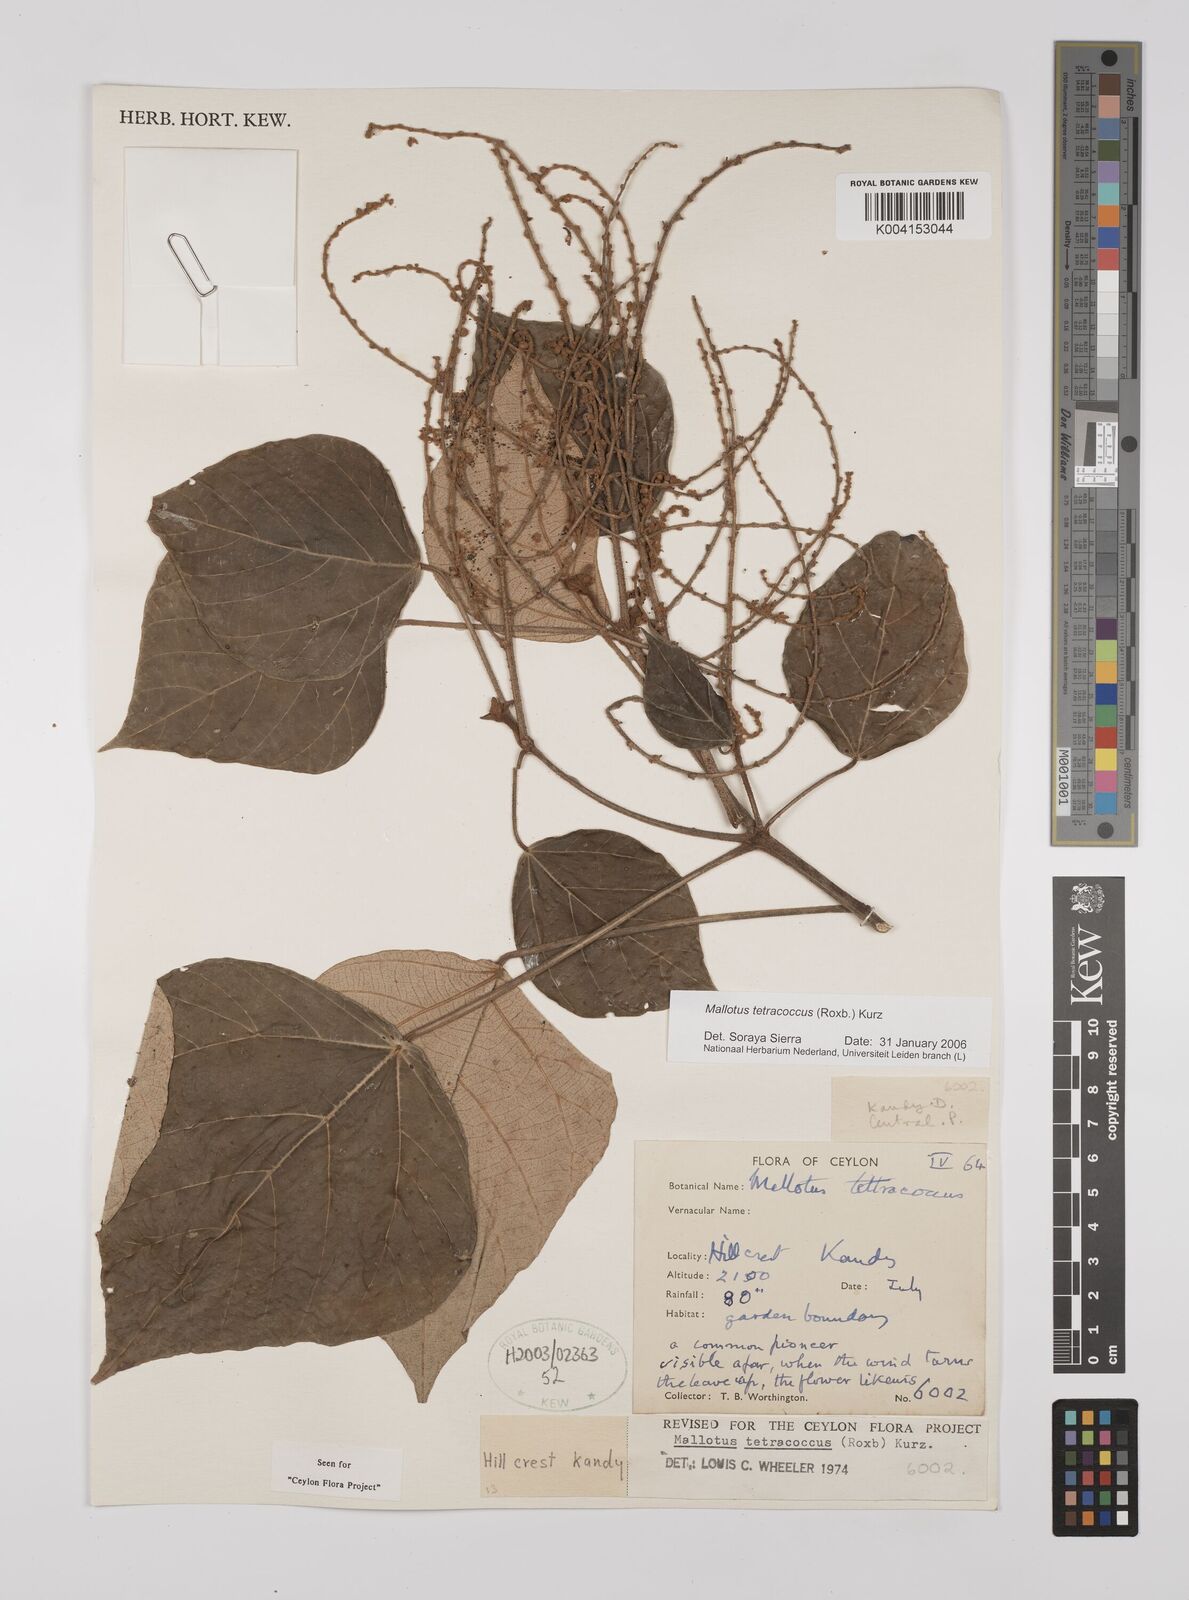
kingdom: Plantae
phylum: Tracheophyta
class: Magnoliopsida
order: Malpighiales
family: Euphorbiaceae
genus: Mallotus
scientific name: Mallotus tetracoccus
